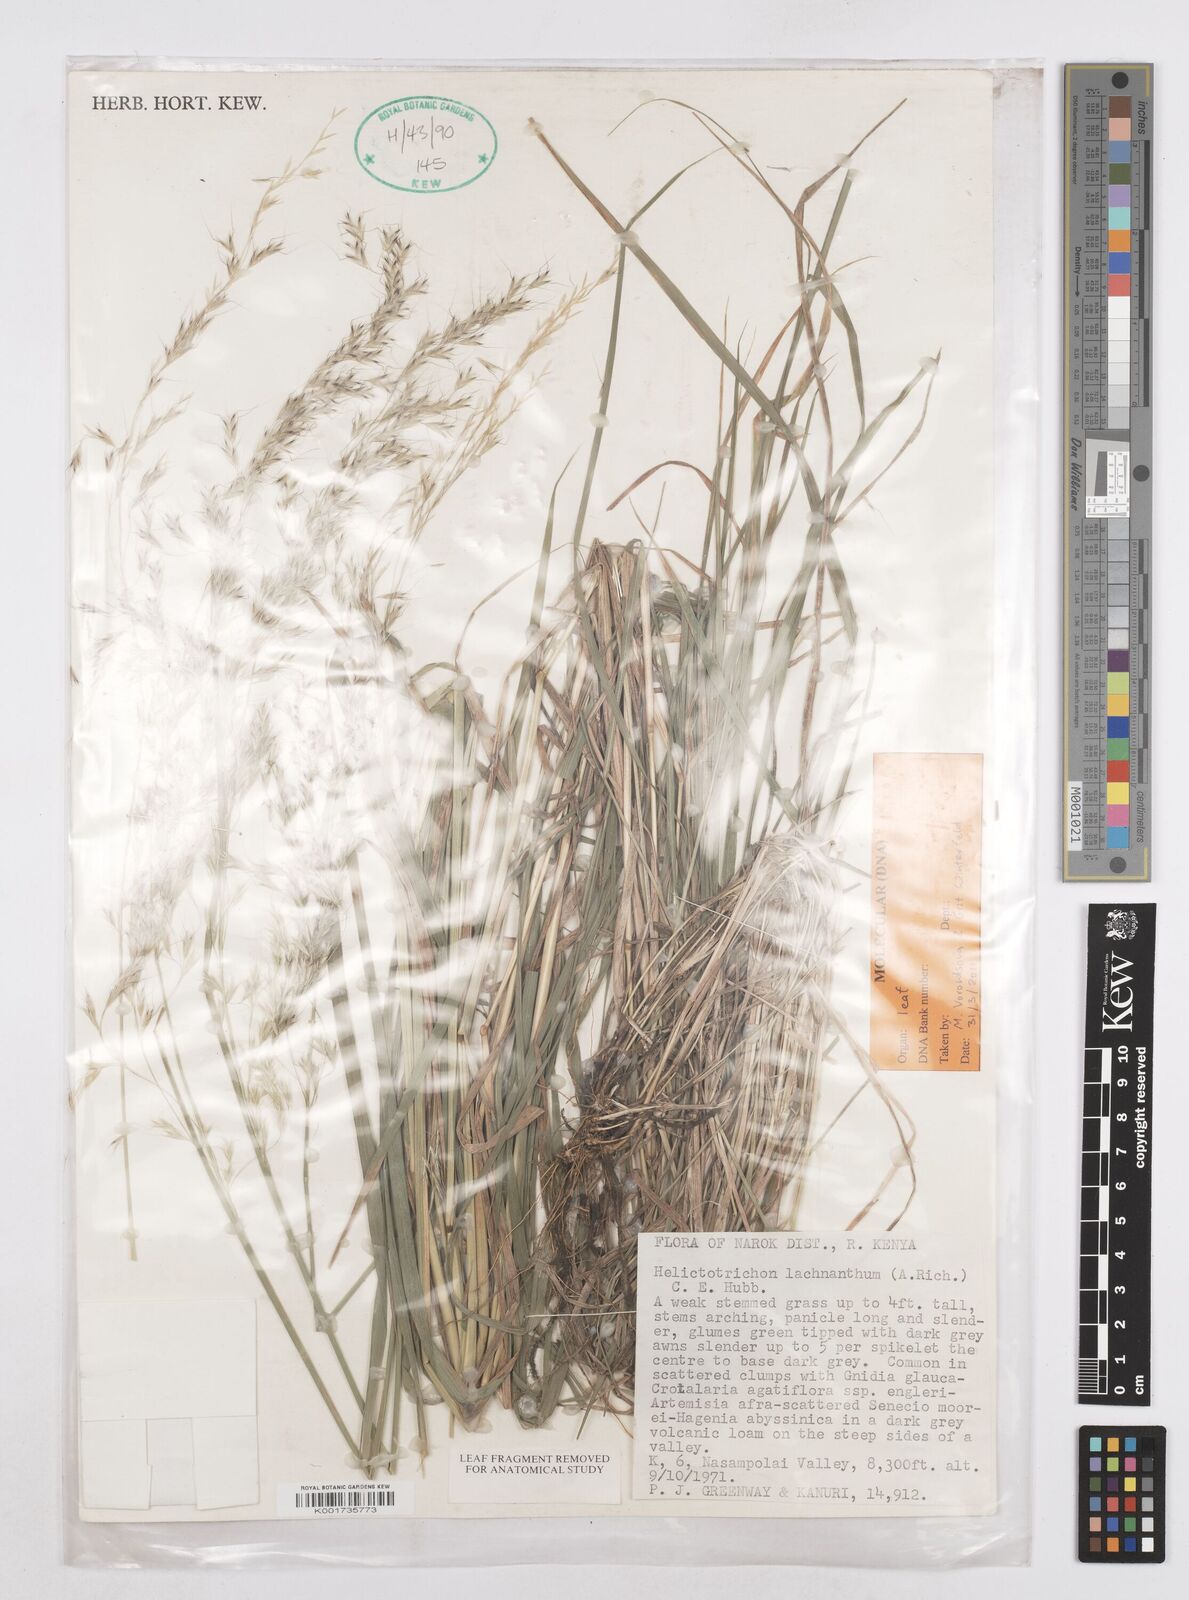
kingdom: Plantae
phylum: Tracheophyta
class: Liliopsida
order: Poales
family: Poaceae
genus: Trisetopsis
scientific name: Trisetopsis lachnantha
